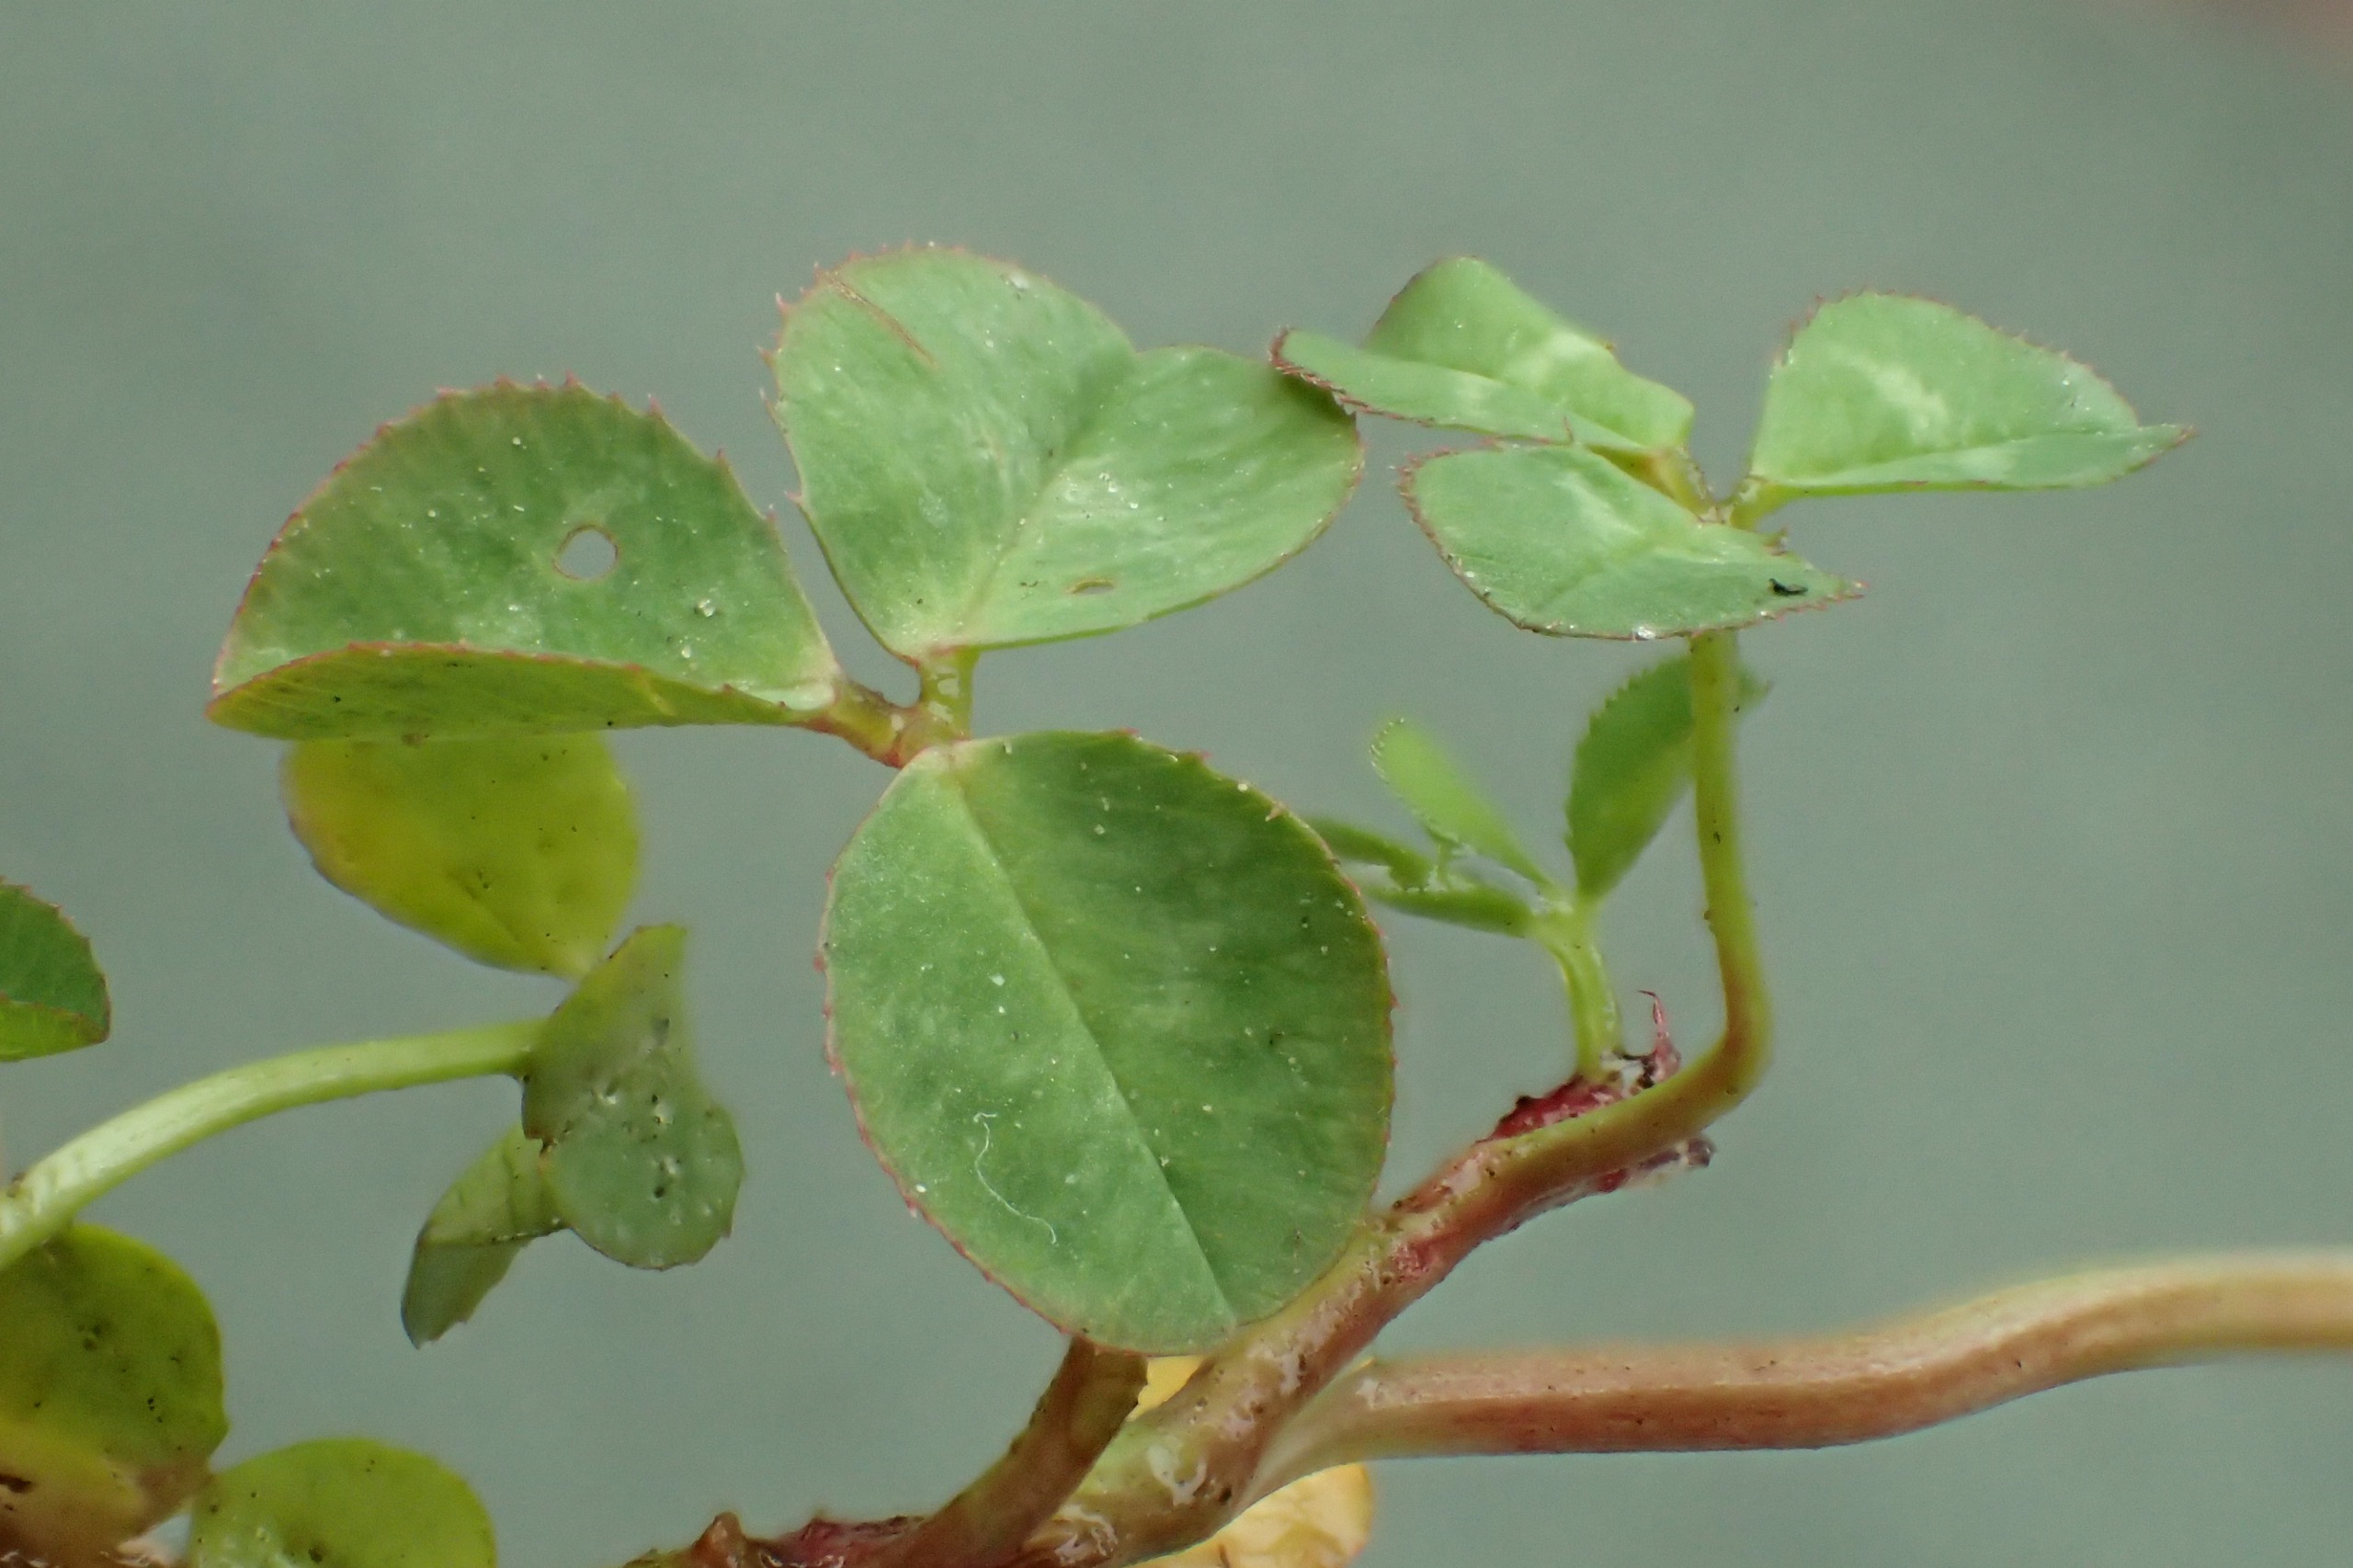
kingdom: Plantae
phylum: Tracheophyta
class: Magnoliopsida
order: Fabales
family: Fabaceae
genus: Trifolium
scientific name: Trifolium repens
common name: Hvid-kløver
